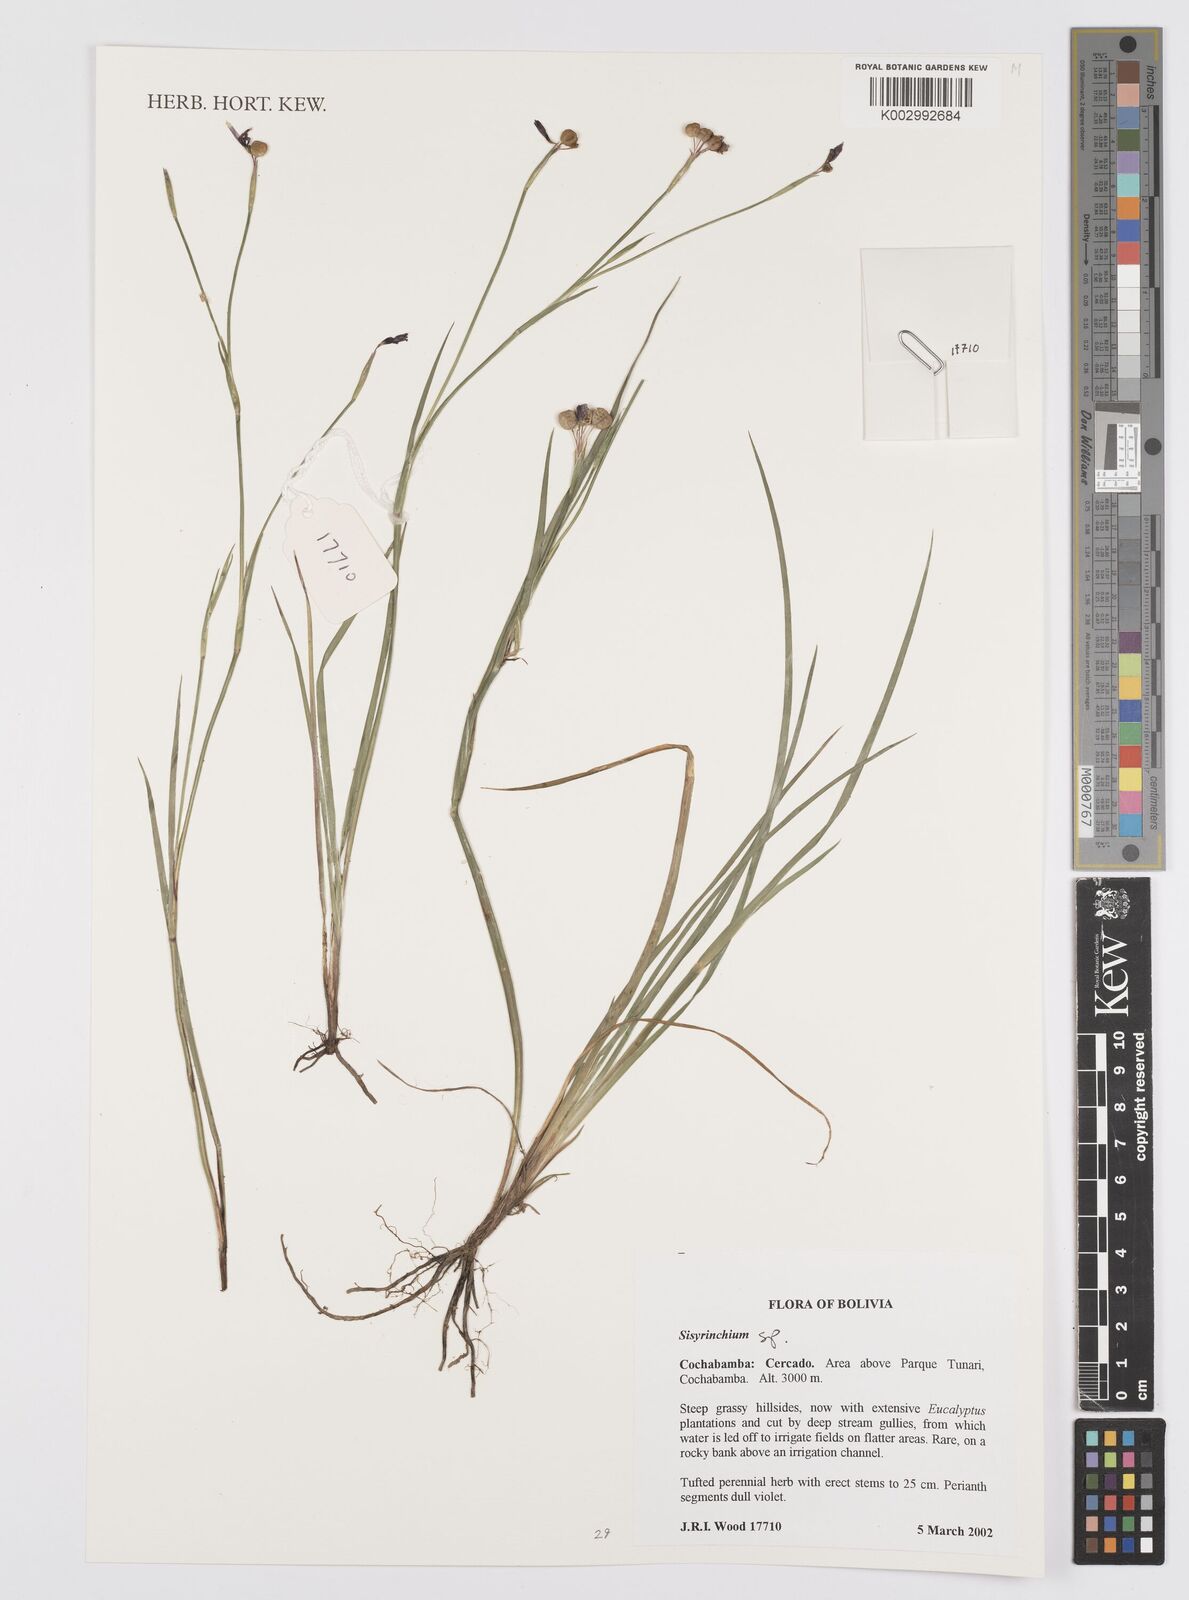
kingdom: Plantae
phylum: Tracheophyta
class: Liliopsida
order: Asparagales
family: Iridaceae
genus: Sisyrinchium
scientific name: Sisyrinchium
